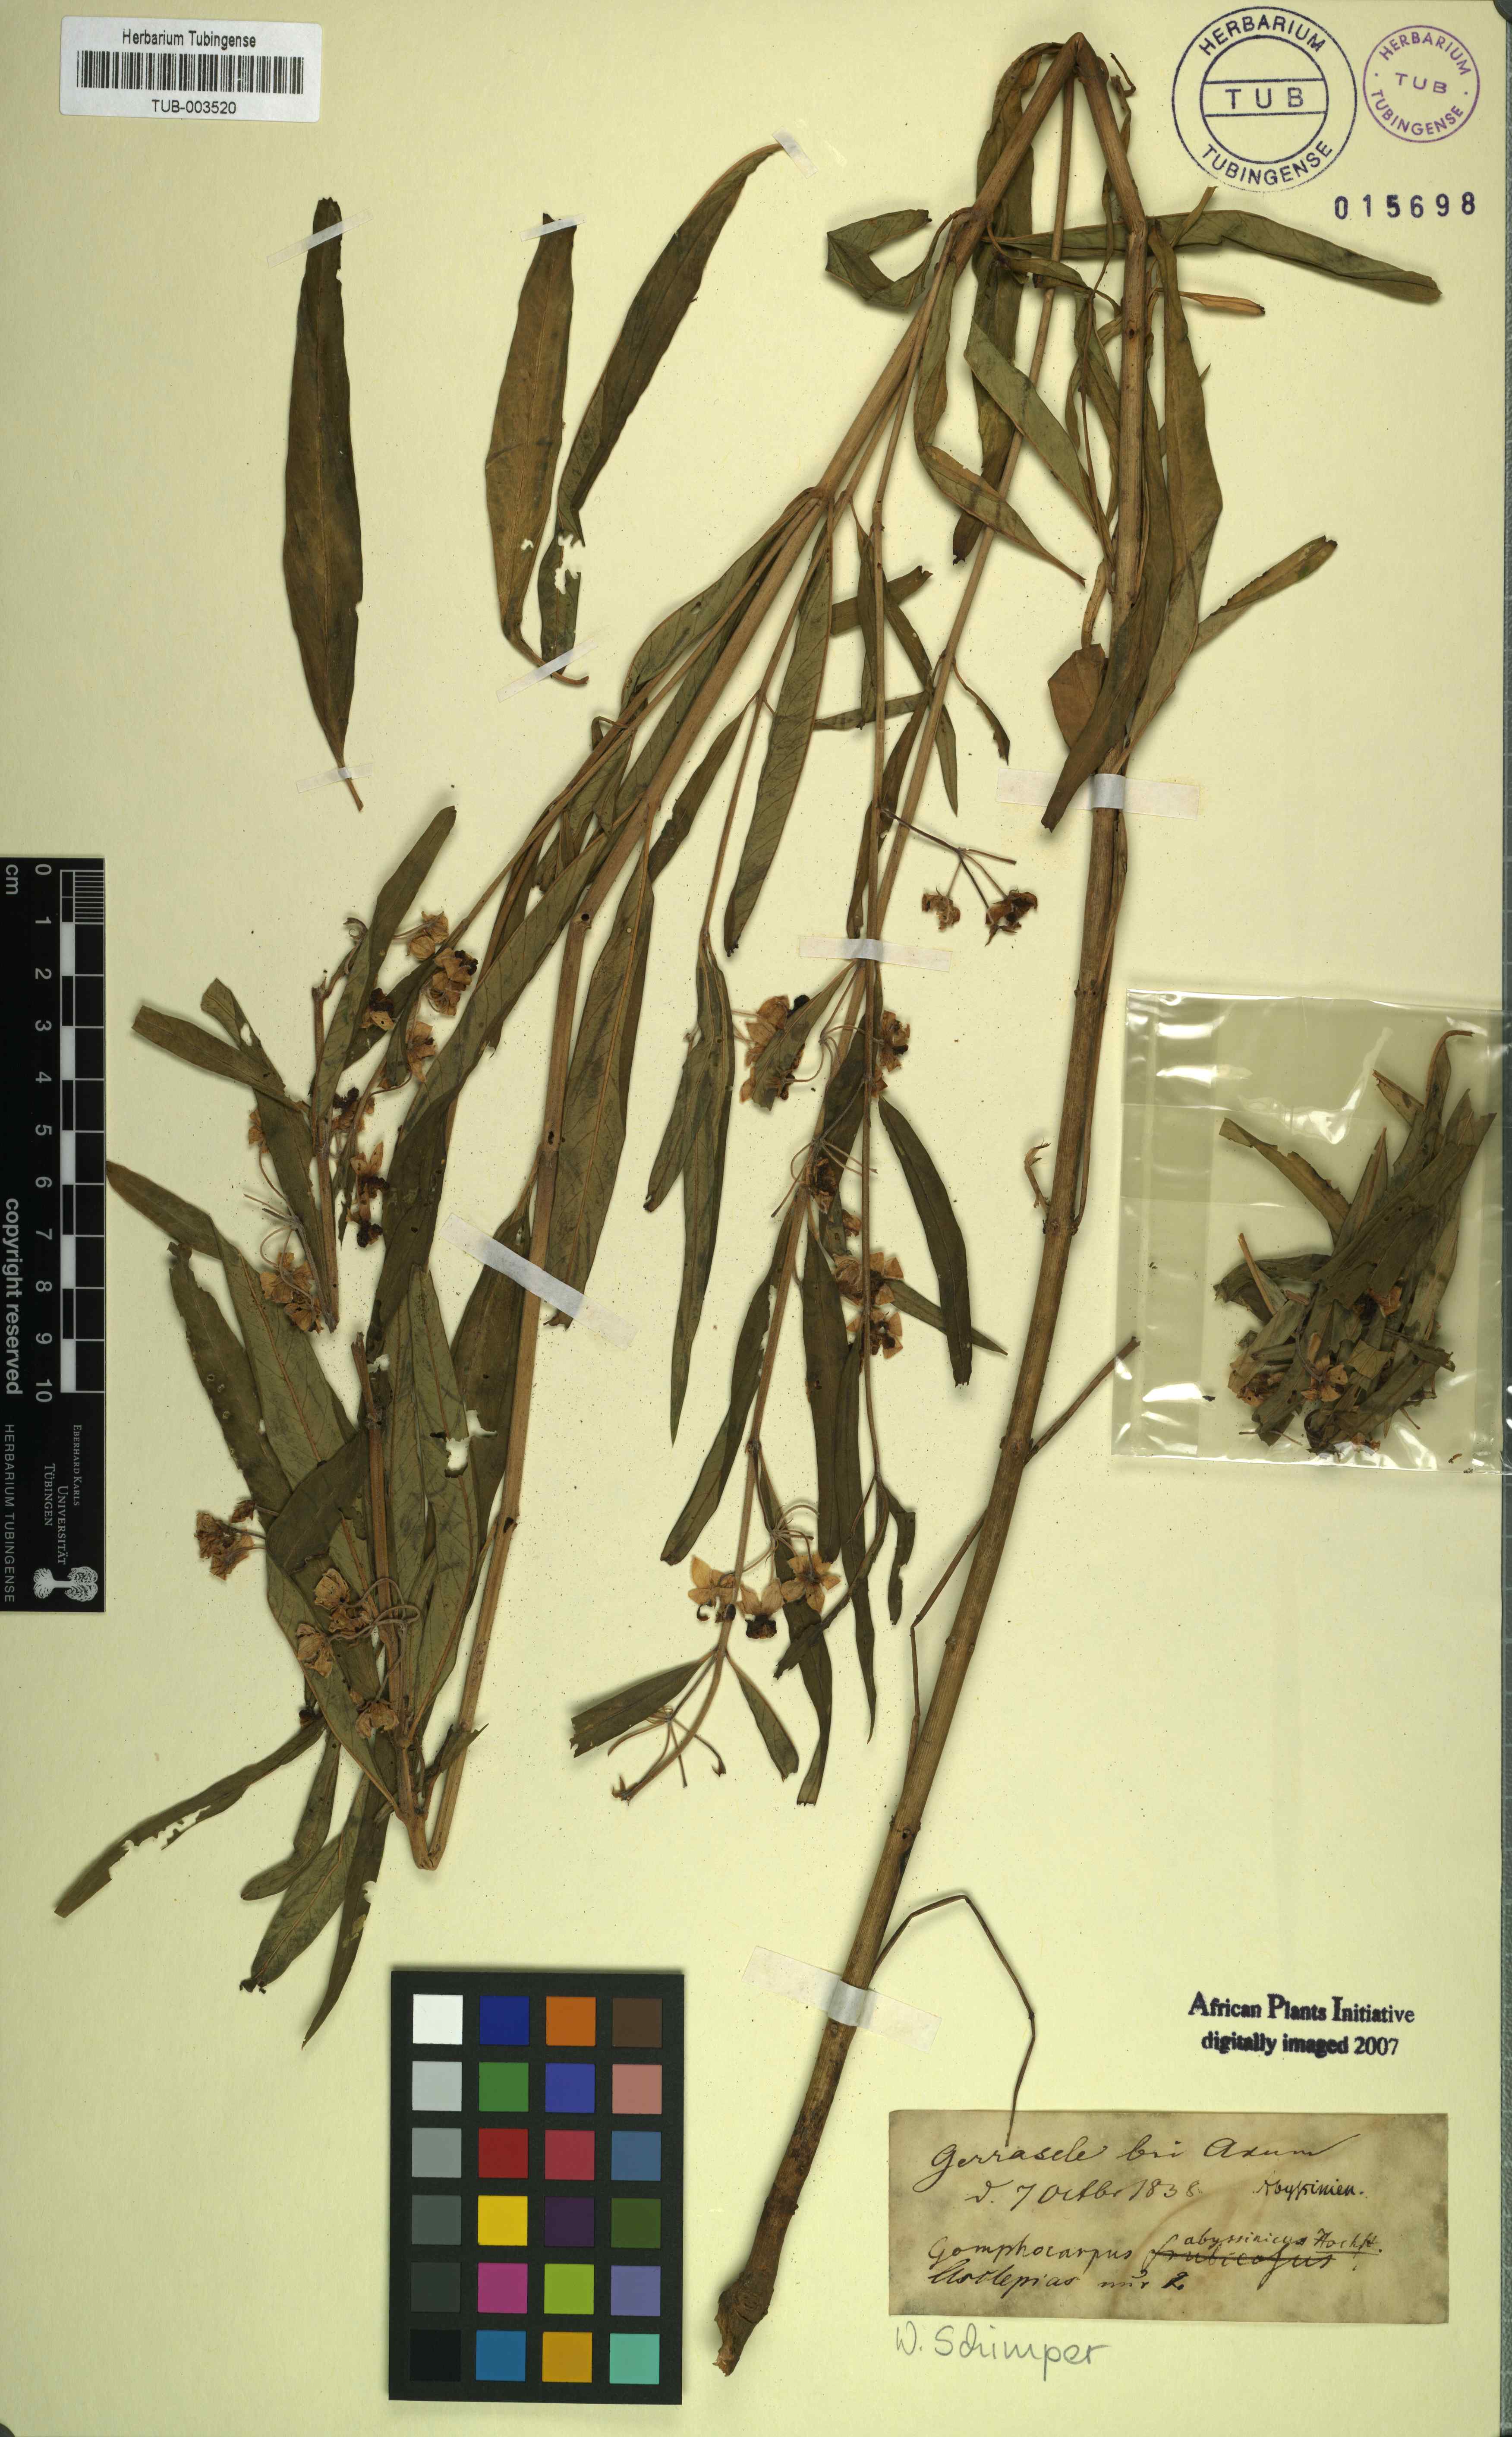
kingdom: Plantae
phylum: Tracheophyta
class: Magnoliopsida
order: Gentianales
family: Apocynaceae
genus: Gomphocarpus
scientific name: Gomphocarpus physocarpus
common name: Balloon cotton bush
